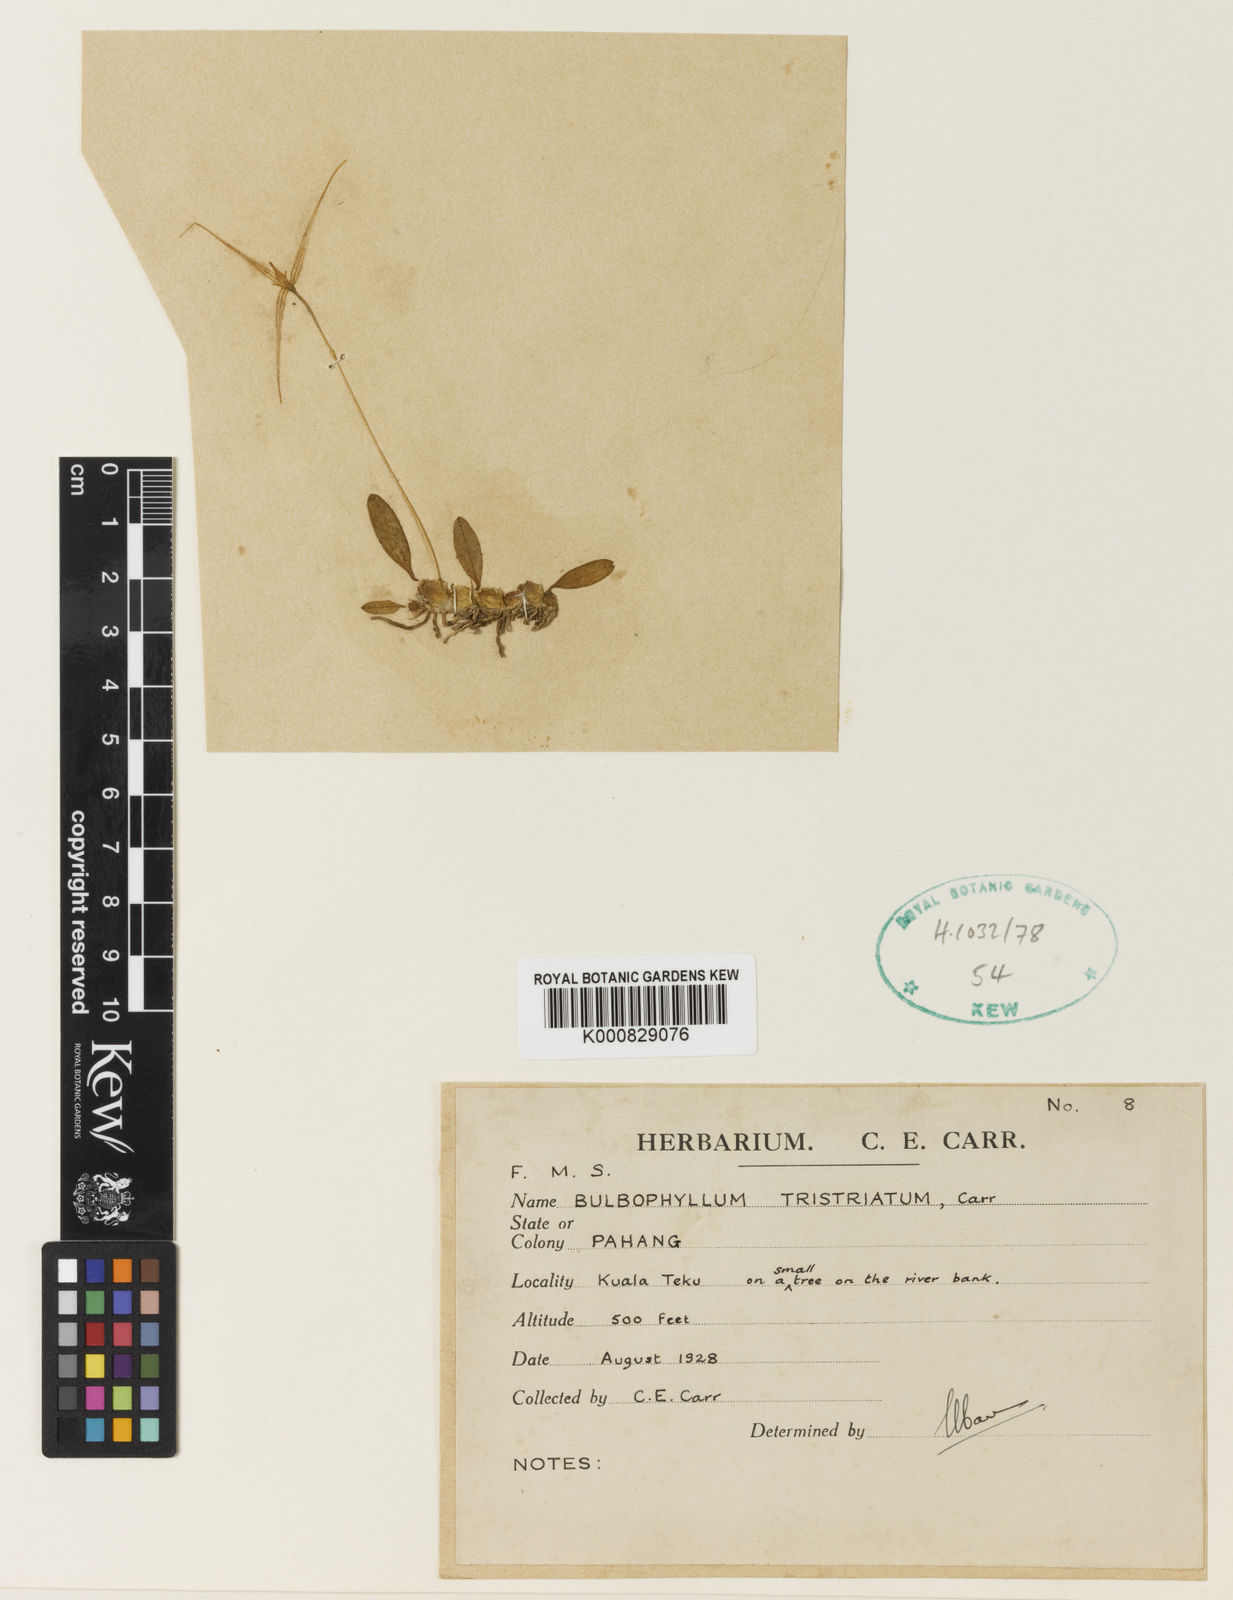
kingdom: Plantae
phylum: Tracheophyta
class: Liliopsida
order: Asparagales
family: Orchidaceae
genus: Bulbophyllum
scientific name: Bulbophyllum tristriatum
